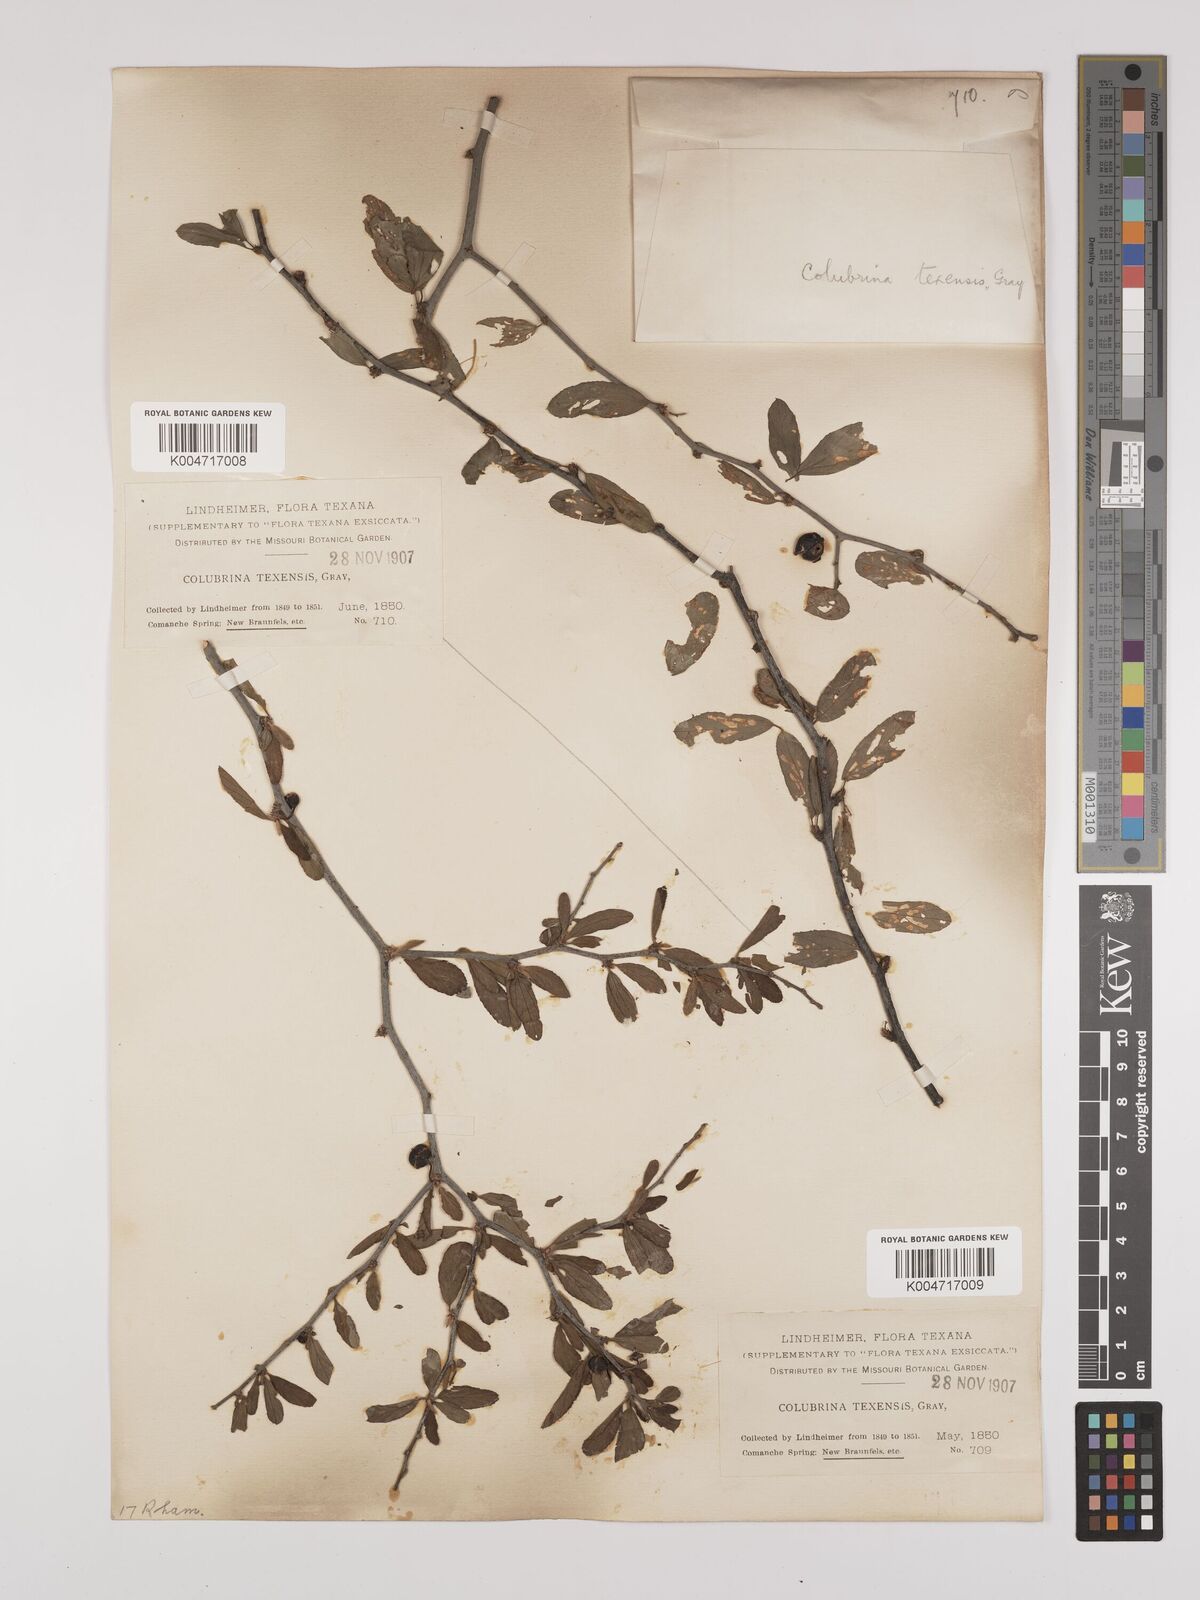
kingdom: Plantae
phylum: Tracheophyta
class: Magnoliopsida
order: Rosales
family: Rhamnaceae
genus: Colubrina
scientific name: Colubrina texensis
